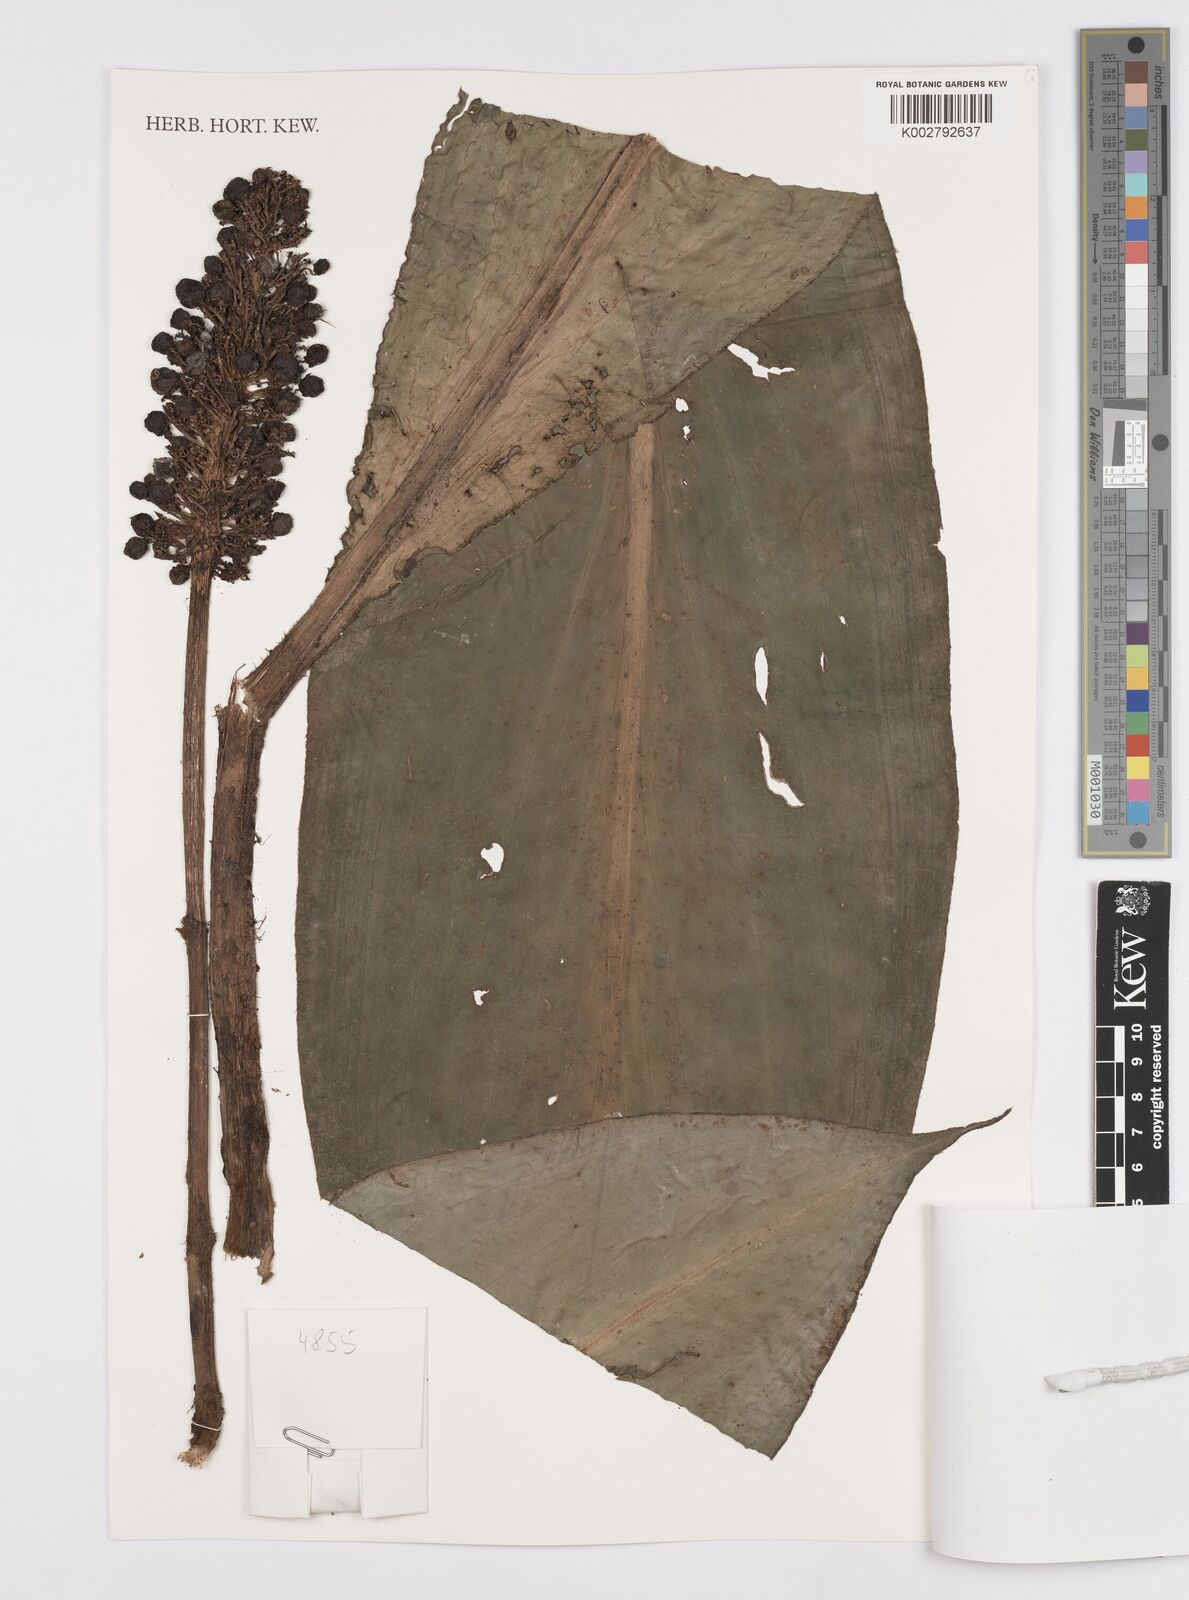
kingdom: Plantae
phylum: Tracheophyta
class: Liliopsida
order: Commelinales
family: Commelinaceae
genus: Palisota
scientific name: Palisota mannii
